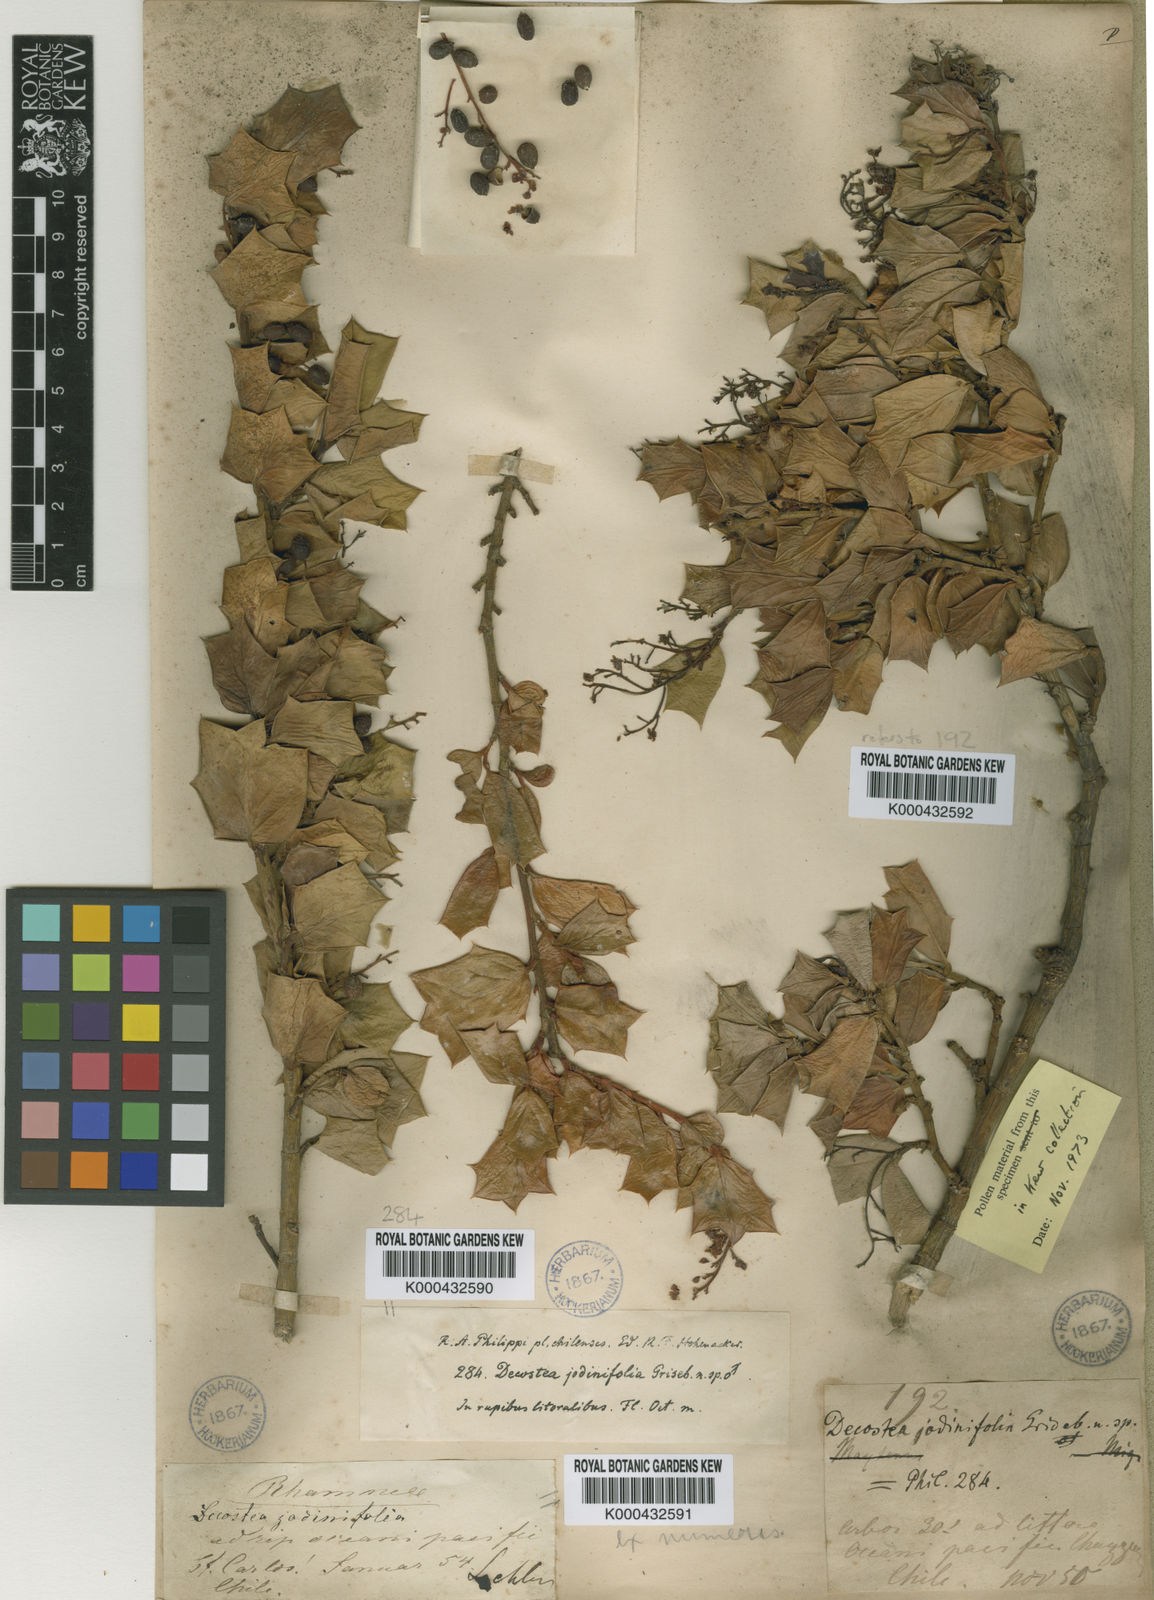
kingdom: Plantae
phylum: Tracheophyta
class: Magnoliopsida
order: Apiales
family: Griseliniaceae
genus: Griselinia
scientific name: Griselinia jodinifolia
